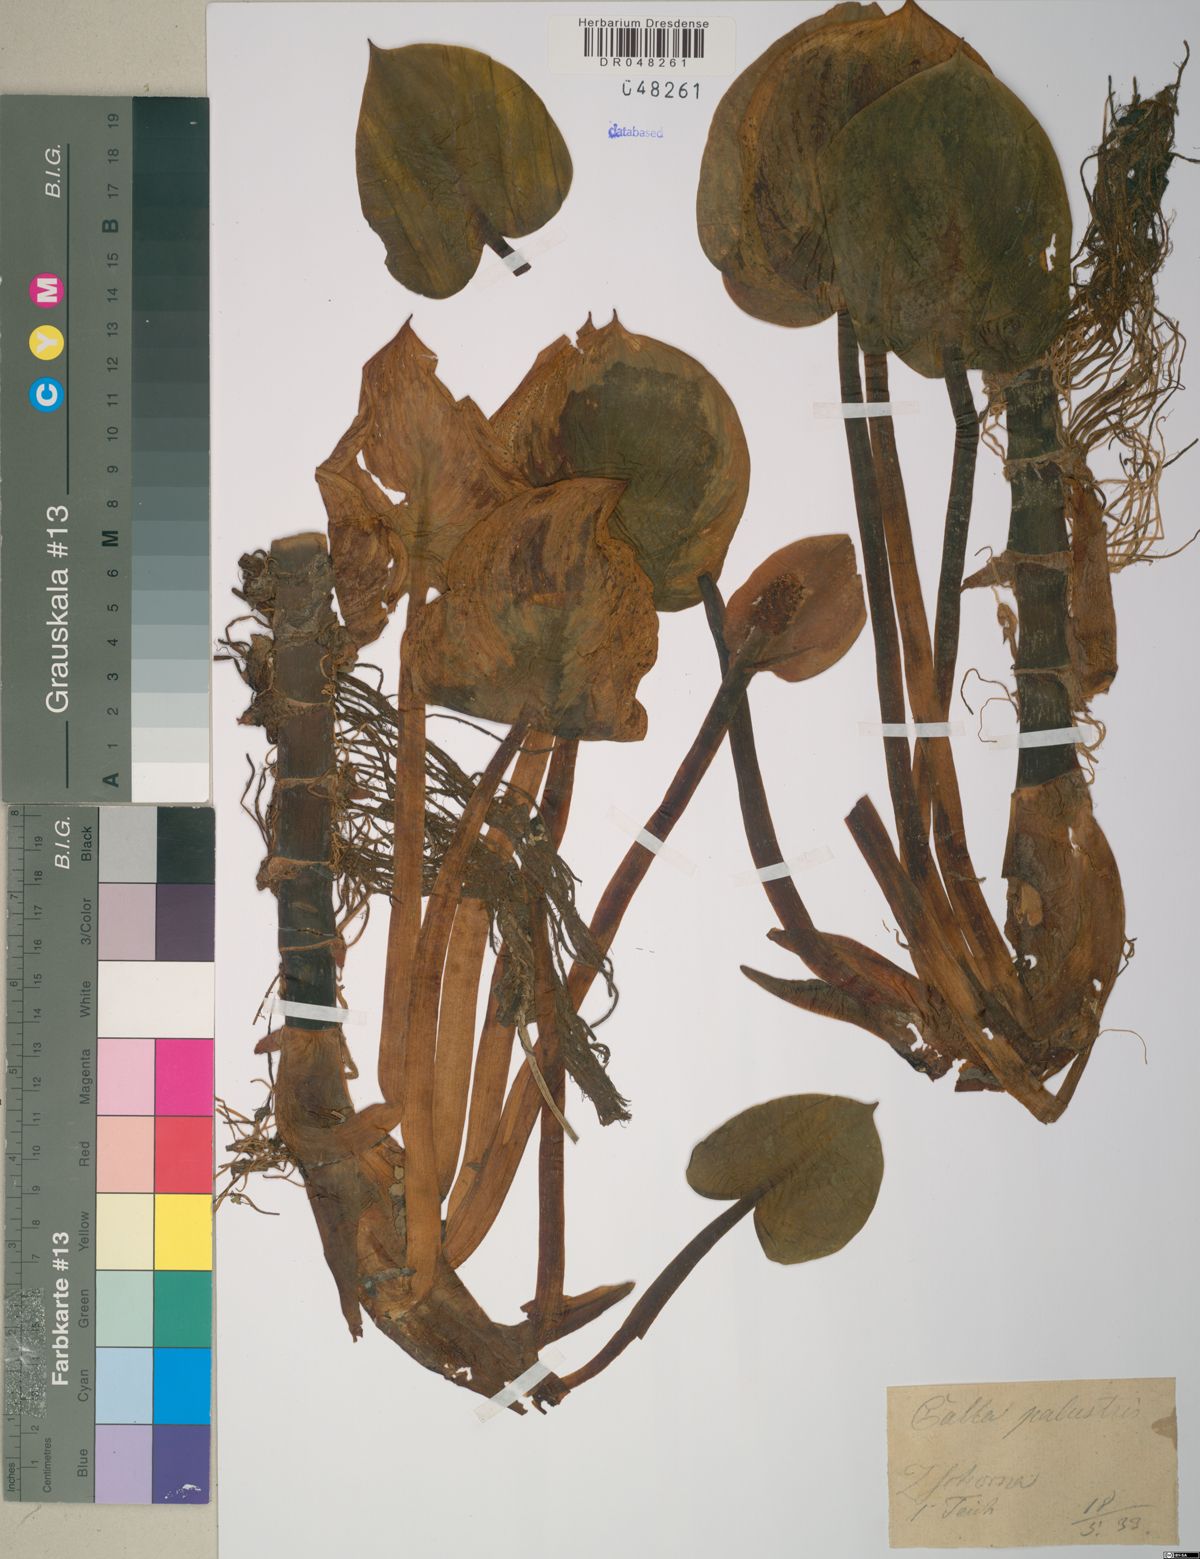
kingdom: Plantae
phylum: Tracheophyta
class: Liliopsida
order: Alismatales
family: Araceae
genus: Calla
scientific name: Calla palustris
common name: Bog arum
